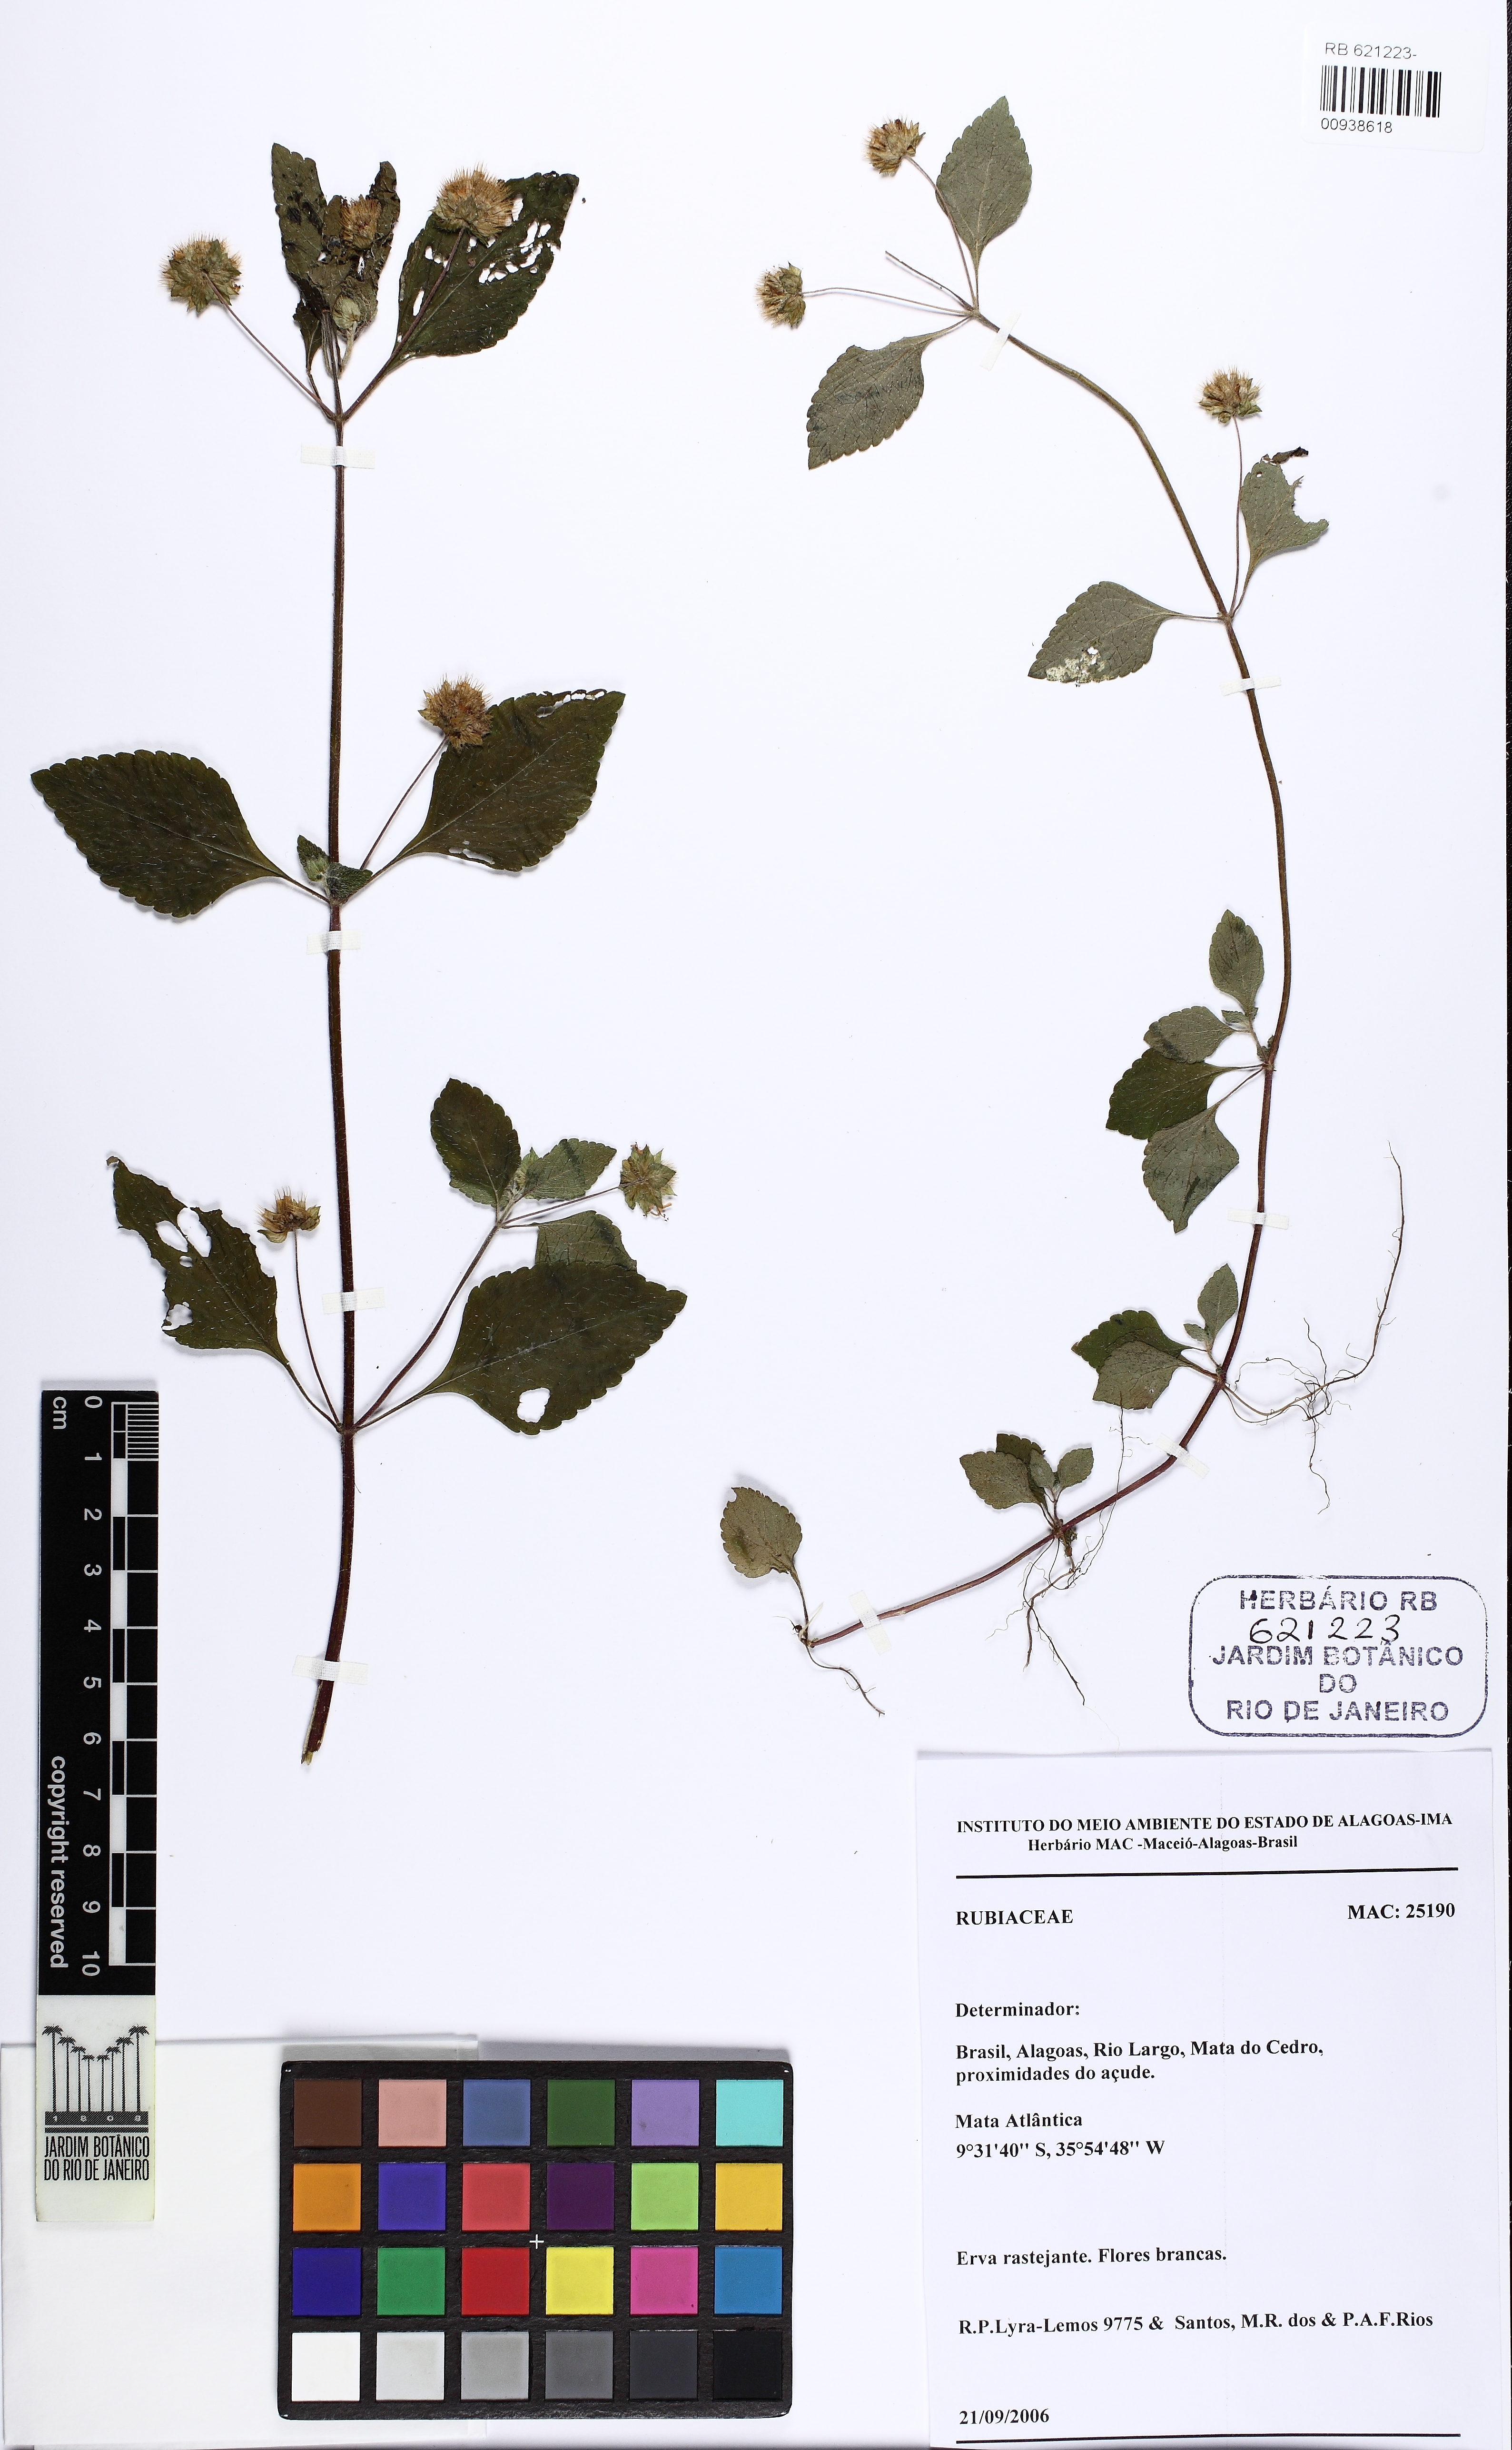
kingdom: Plantae
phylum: Tracheophyta
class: Magnoliopsida
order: Lamiales
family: Lamiaceae
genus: Hyptis
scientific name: Hyptis atrorubens
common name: Lanmant
